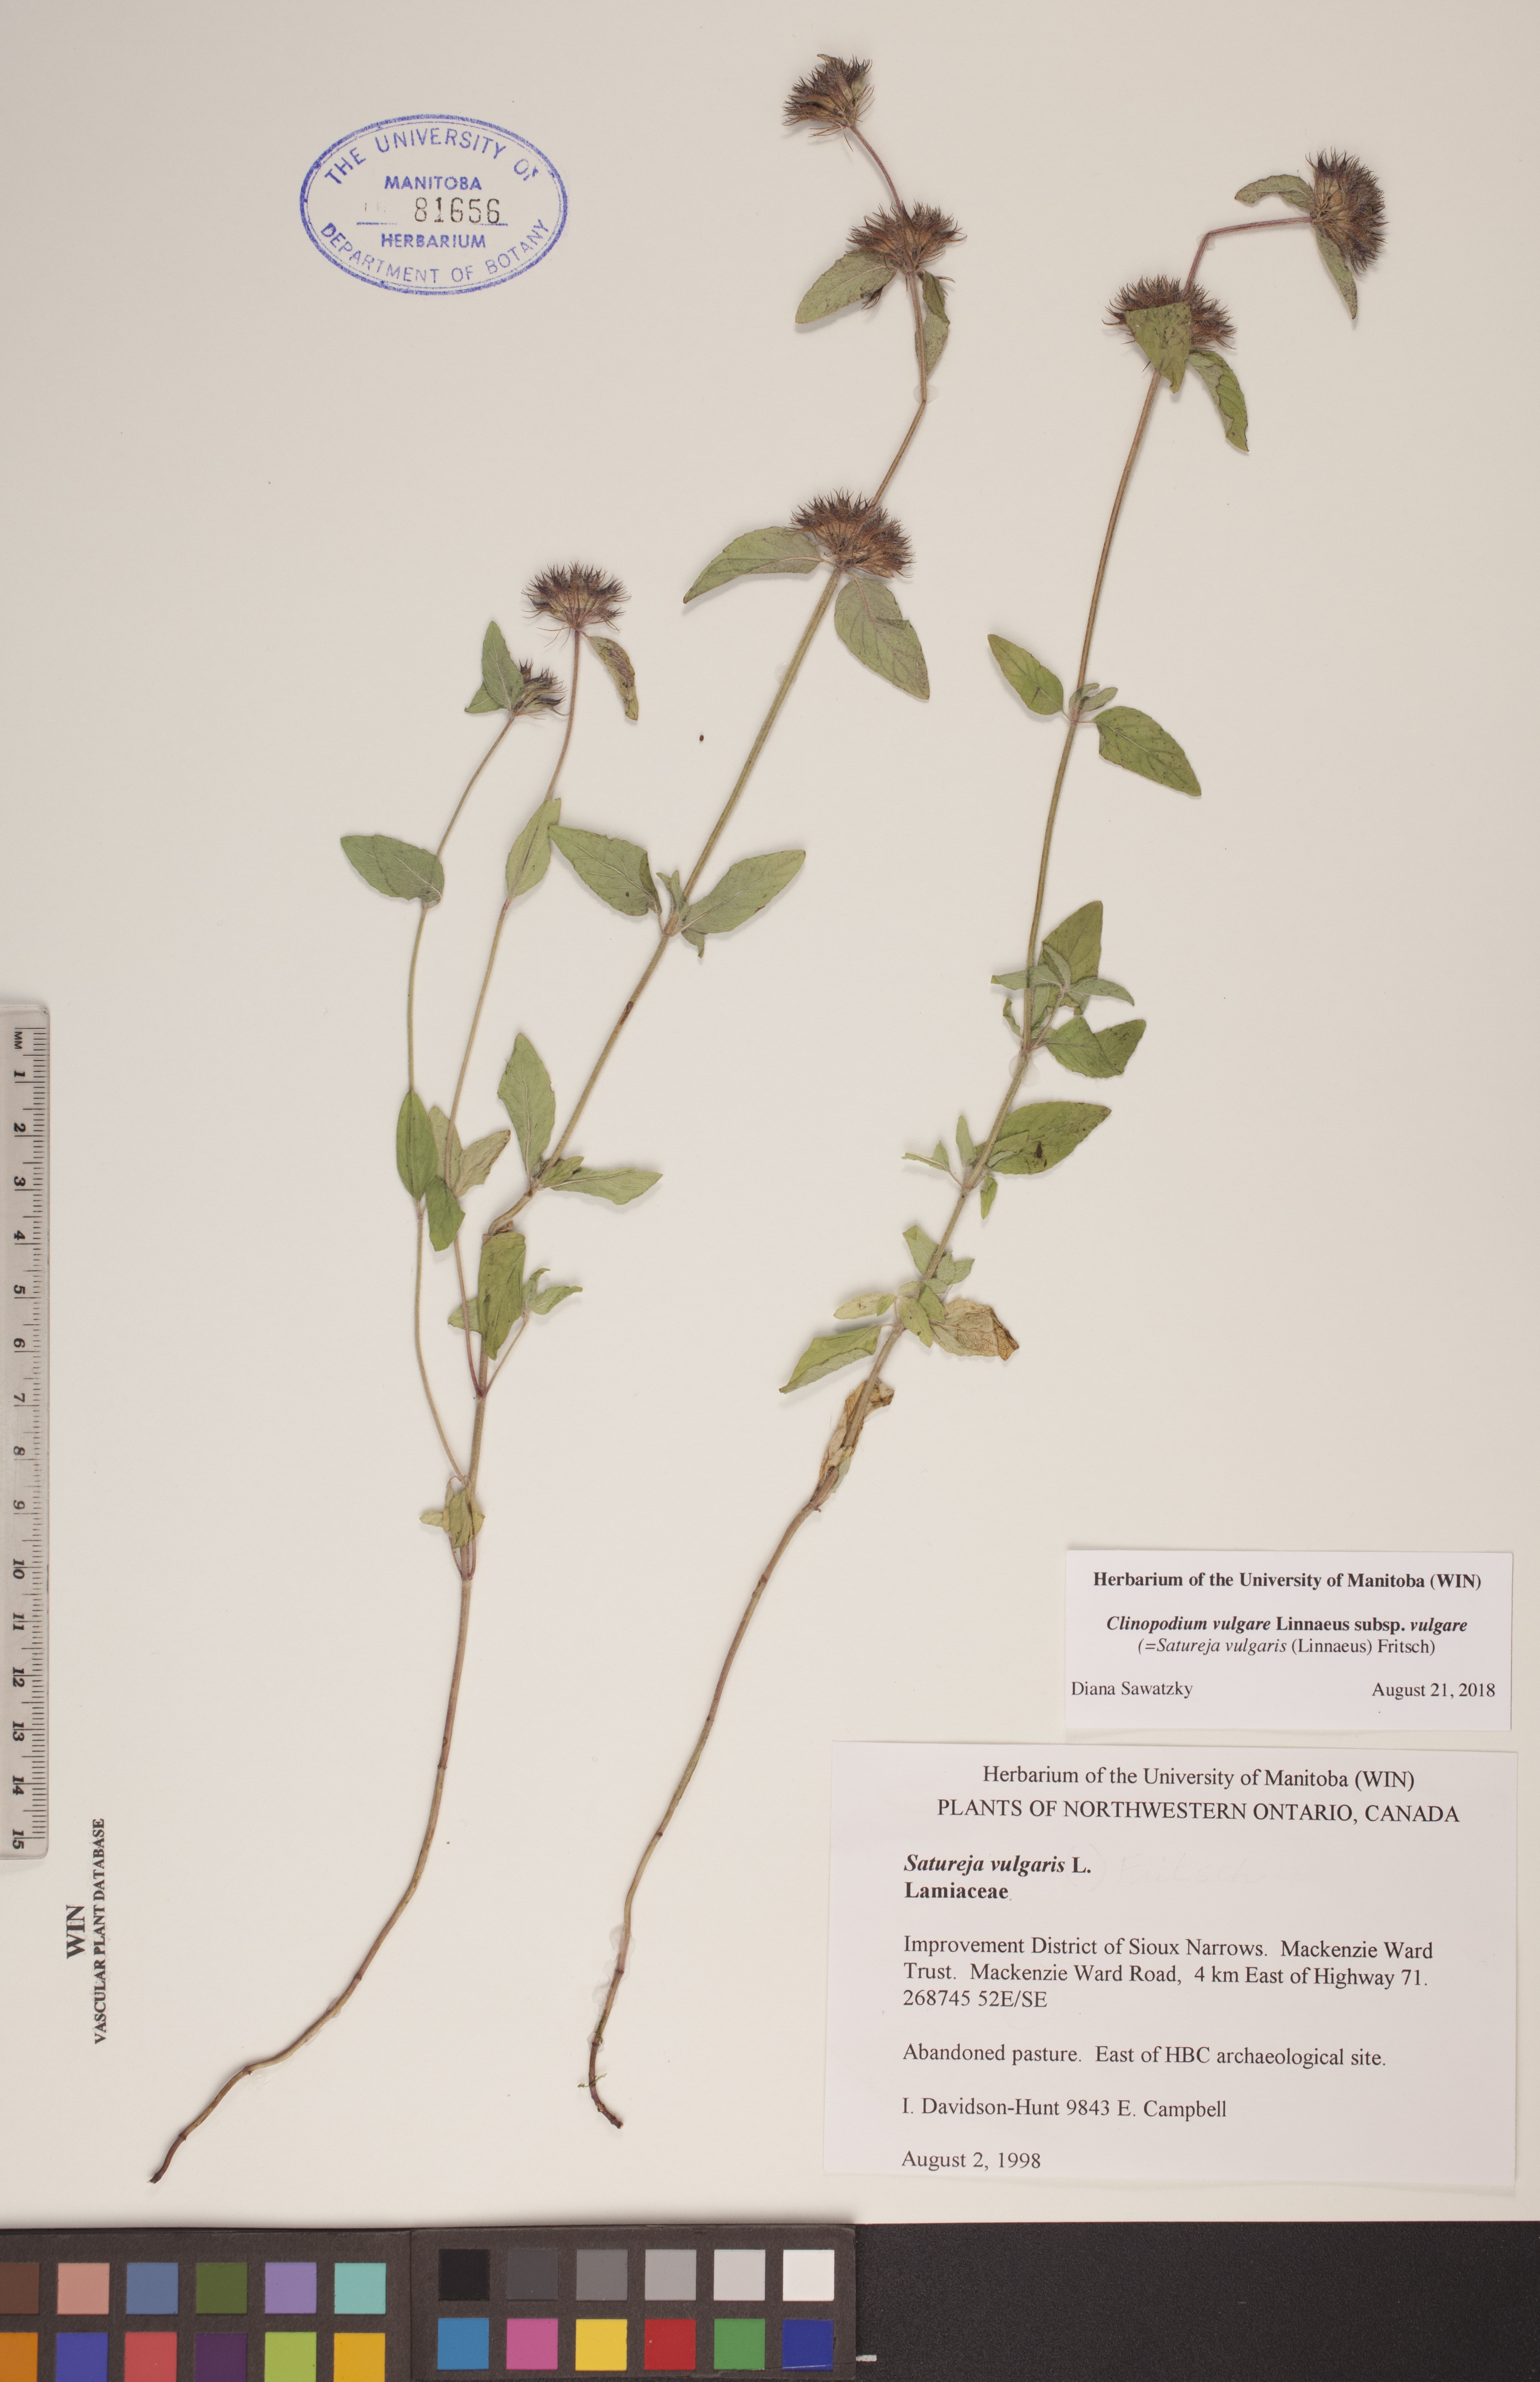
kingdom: Plantae
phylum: Tracheophyta
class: Magnoliopsida
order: Lamiales
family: Lamiaceae
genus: Clinopodium
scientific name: Clinopodium vulgare
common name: Wild basil
